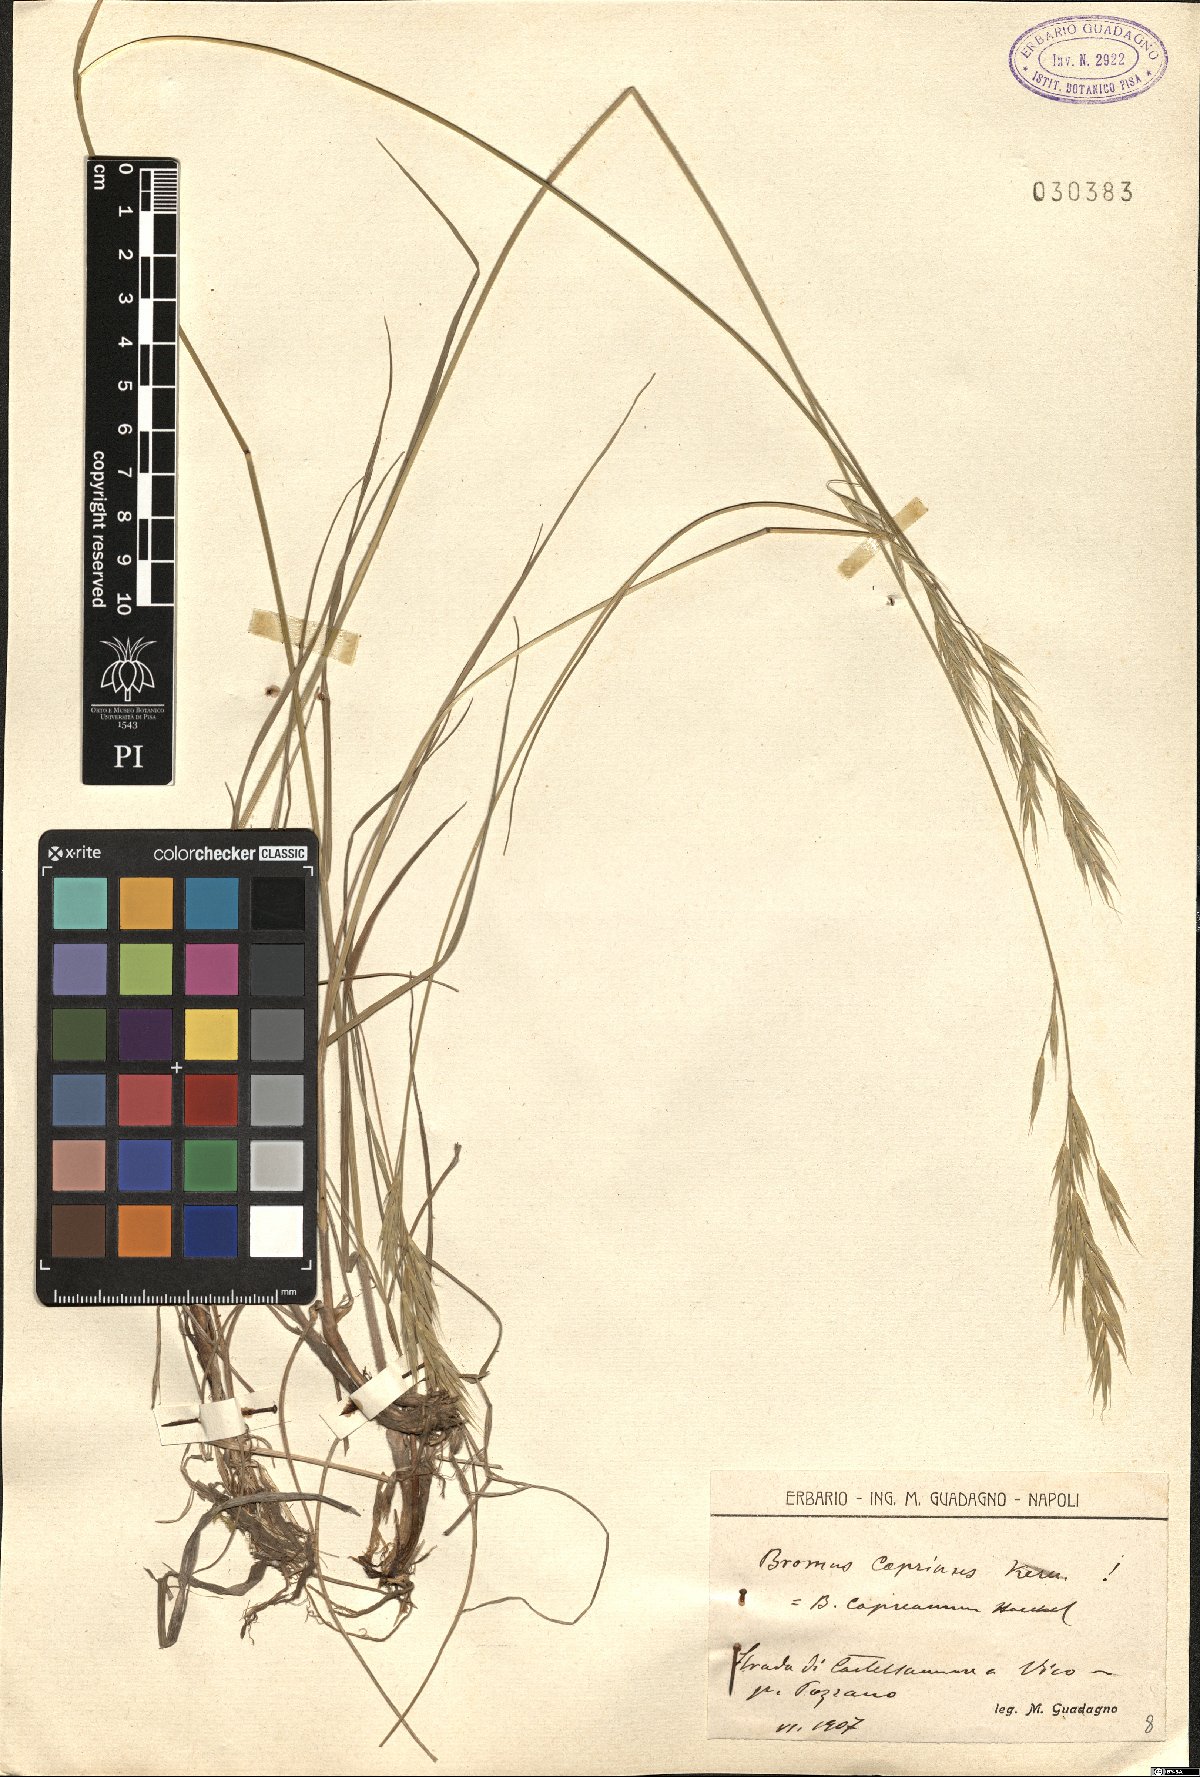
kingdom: Plantae
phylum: Tracheophyta
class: Liliopsida
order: Poales
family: Poaceae
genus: Bromus
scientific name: Bromus erectus
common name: Erect brome
